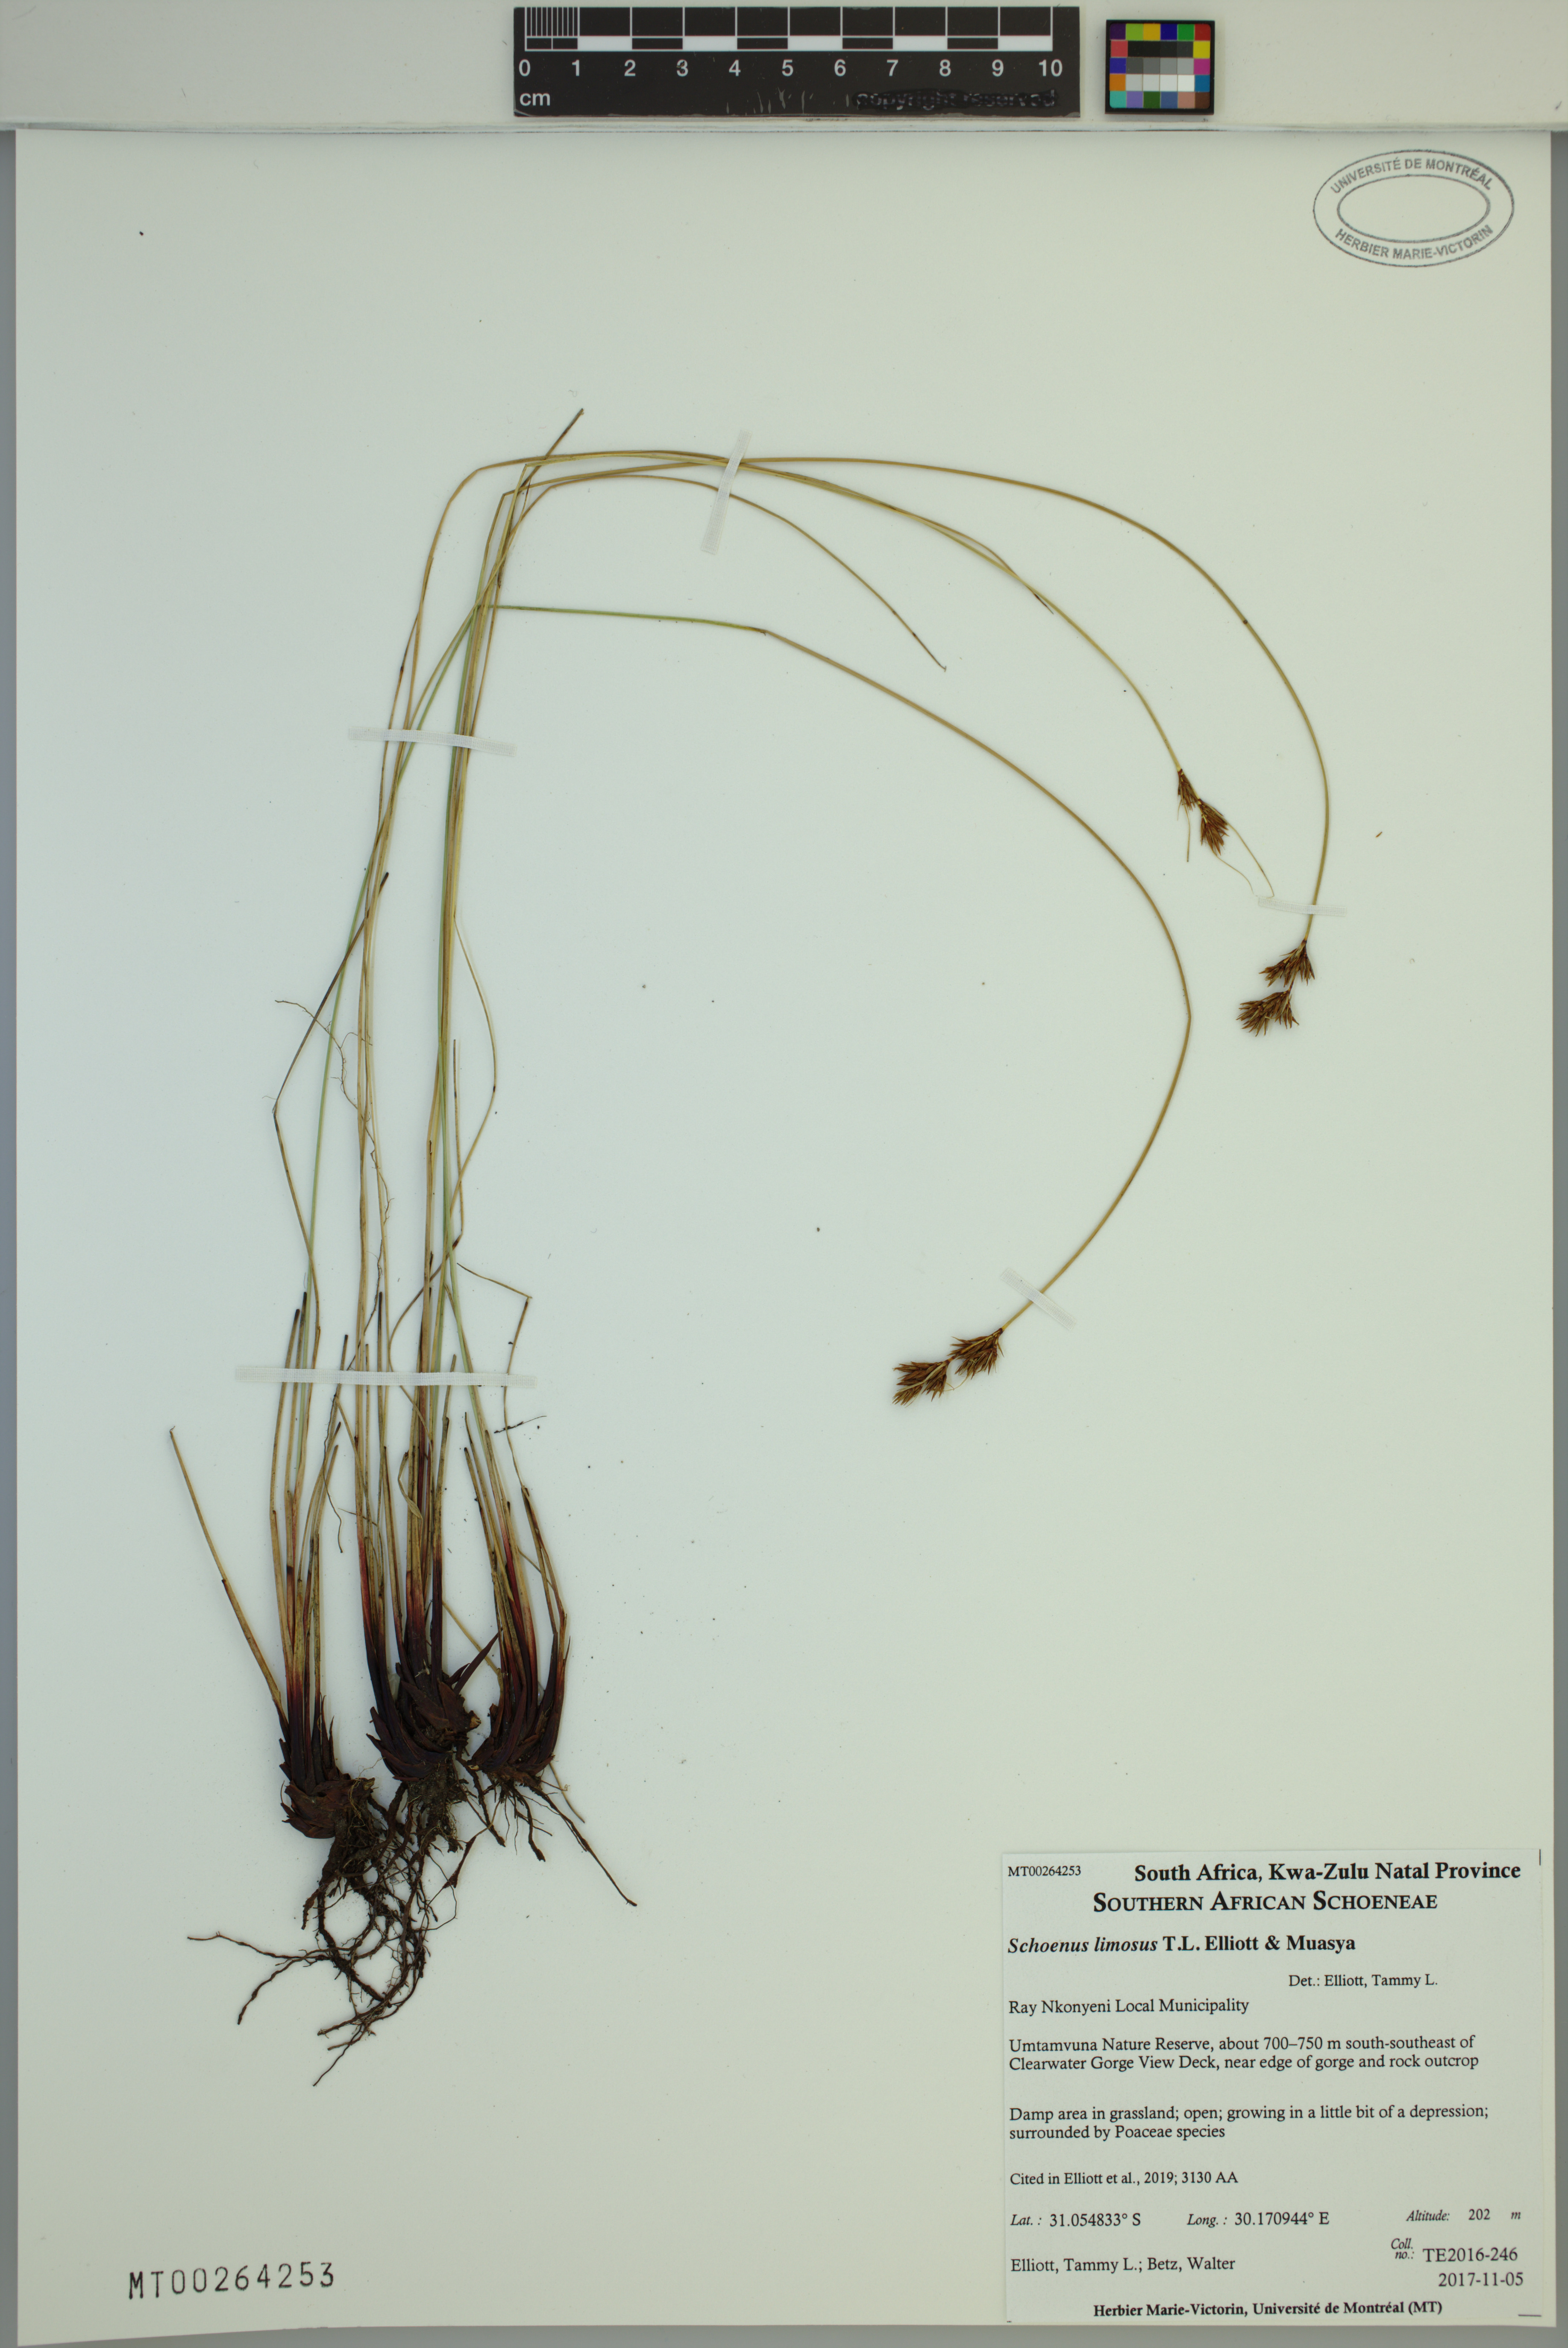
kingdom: Plantae
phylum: Tracheophyta
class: Liliopsida
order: Poales
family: Cyperaceae
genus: Schoenus
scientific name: Schoenus limosus
